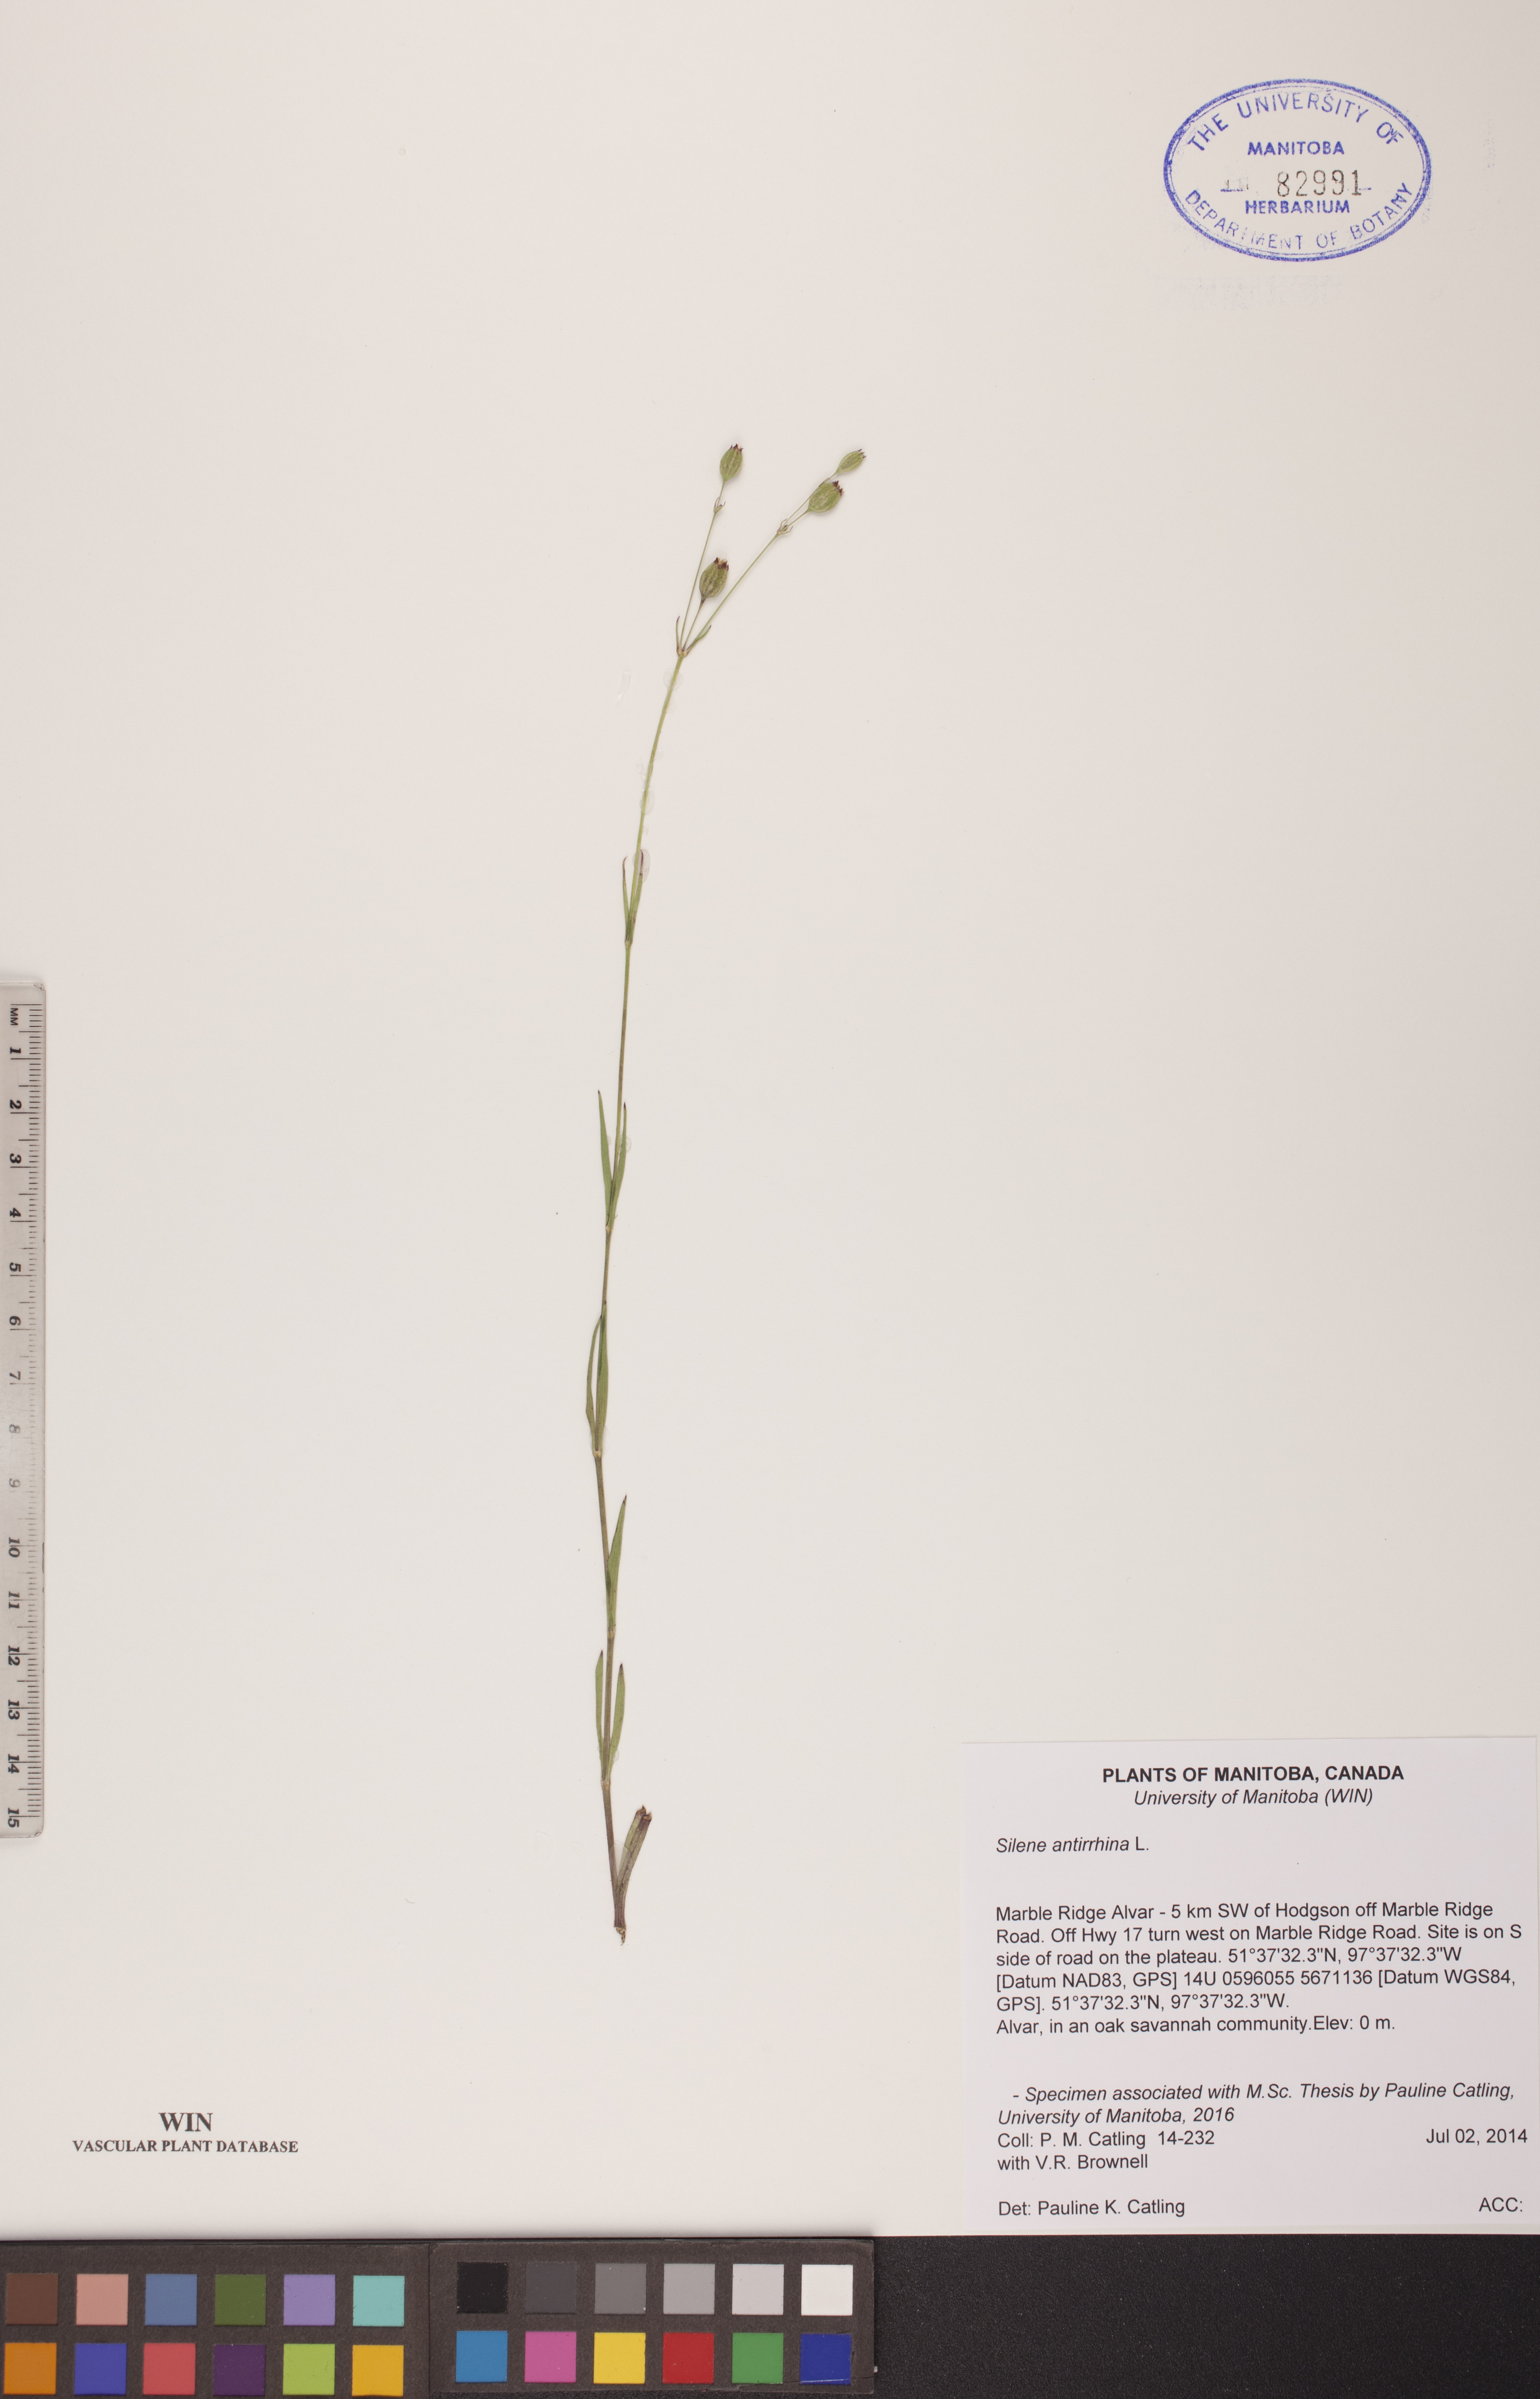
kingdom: Plantae
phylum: Tracheophyta
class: Magnoliopsida
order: Caryophyllales
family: Caryophyllaceae
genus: Silene
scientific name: Silene antirrhina
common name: Sleepy catchfly
